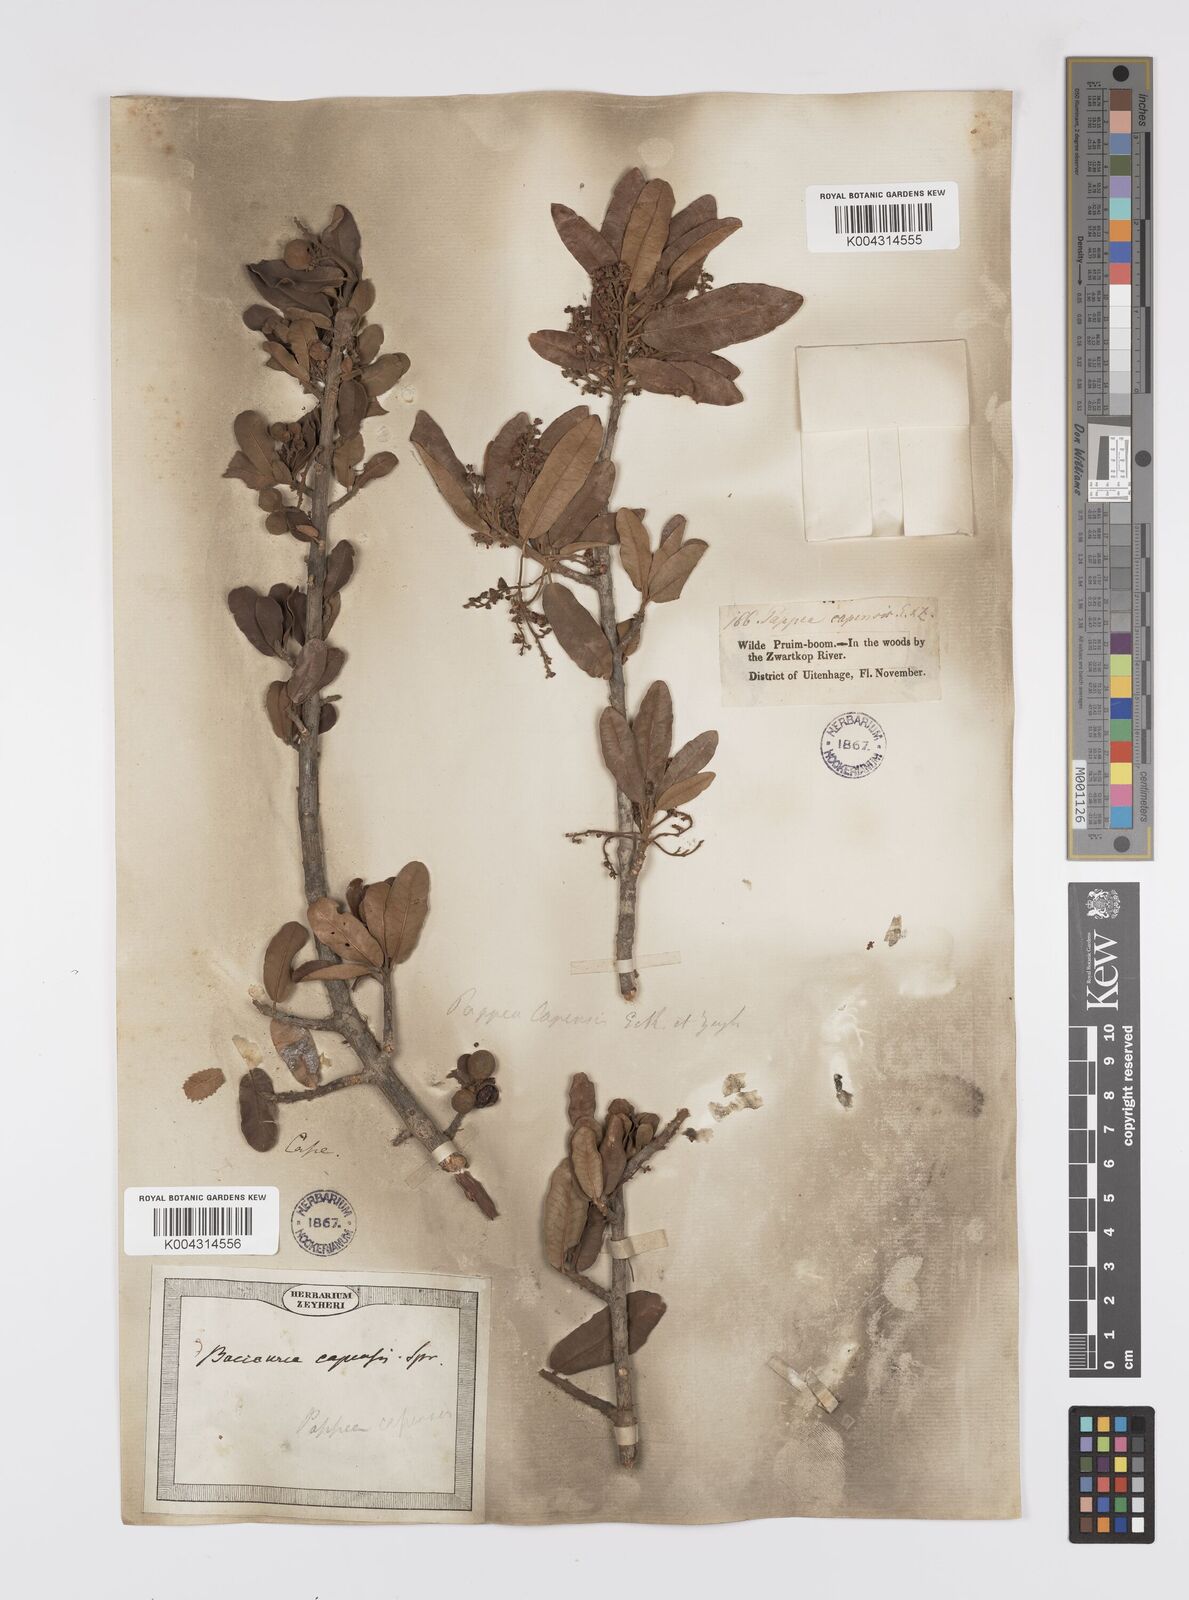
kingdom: Plantae
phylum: Tracheophyta
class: Magnoliopsida
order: Sapindales
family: Sapindaceae
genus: Pappea
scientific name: Pappea capensis
